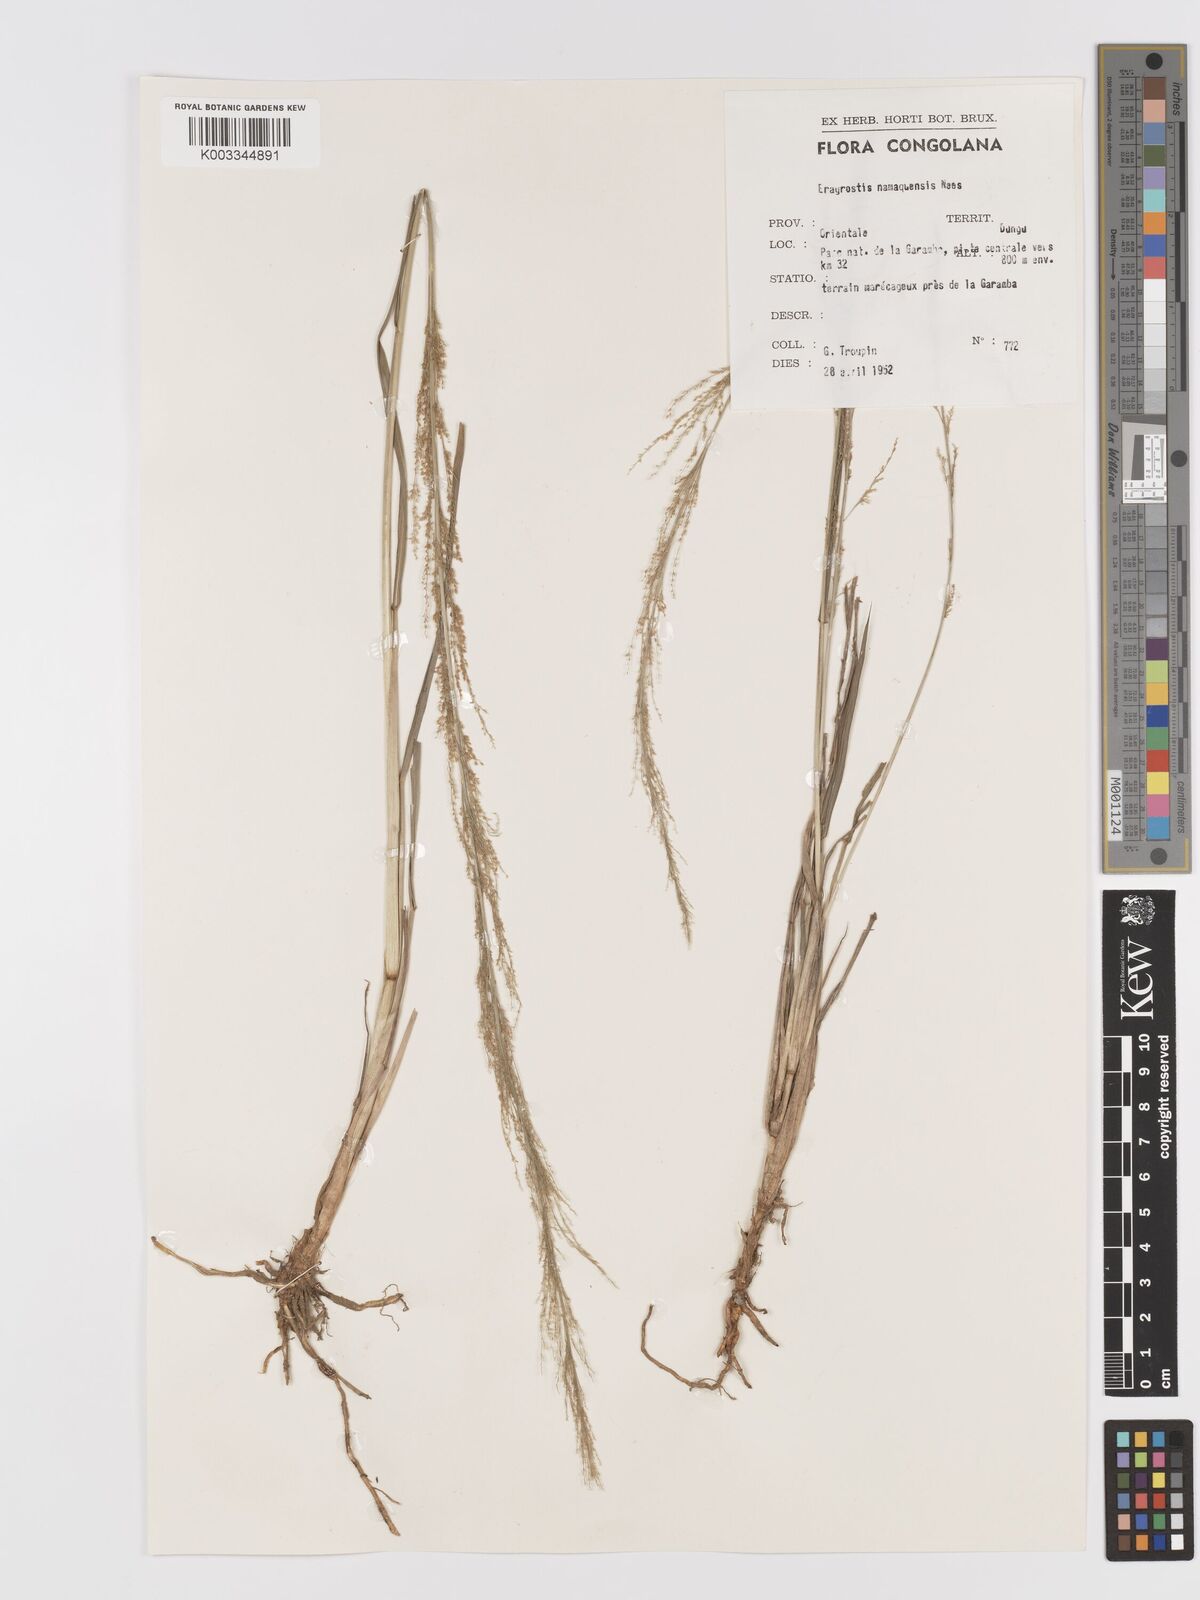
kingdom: Plantae
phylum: Tracheophyta
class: Liliopsida
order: Poales
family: Poaceae
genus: Eragrostis
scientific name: Eragrostis japonica
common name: Pond lovegrass
